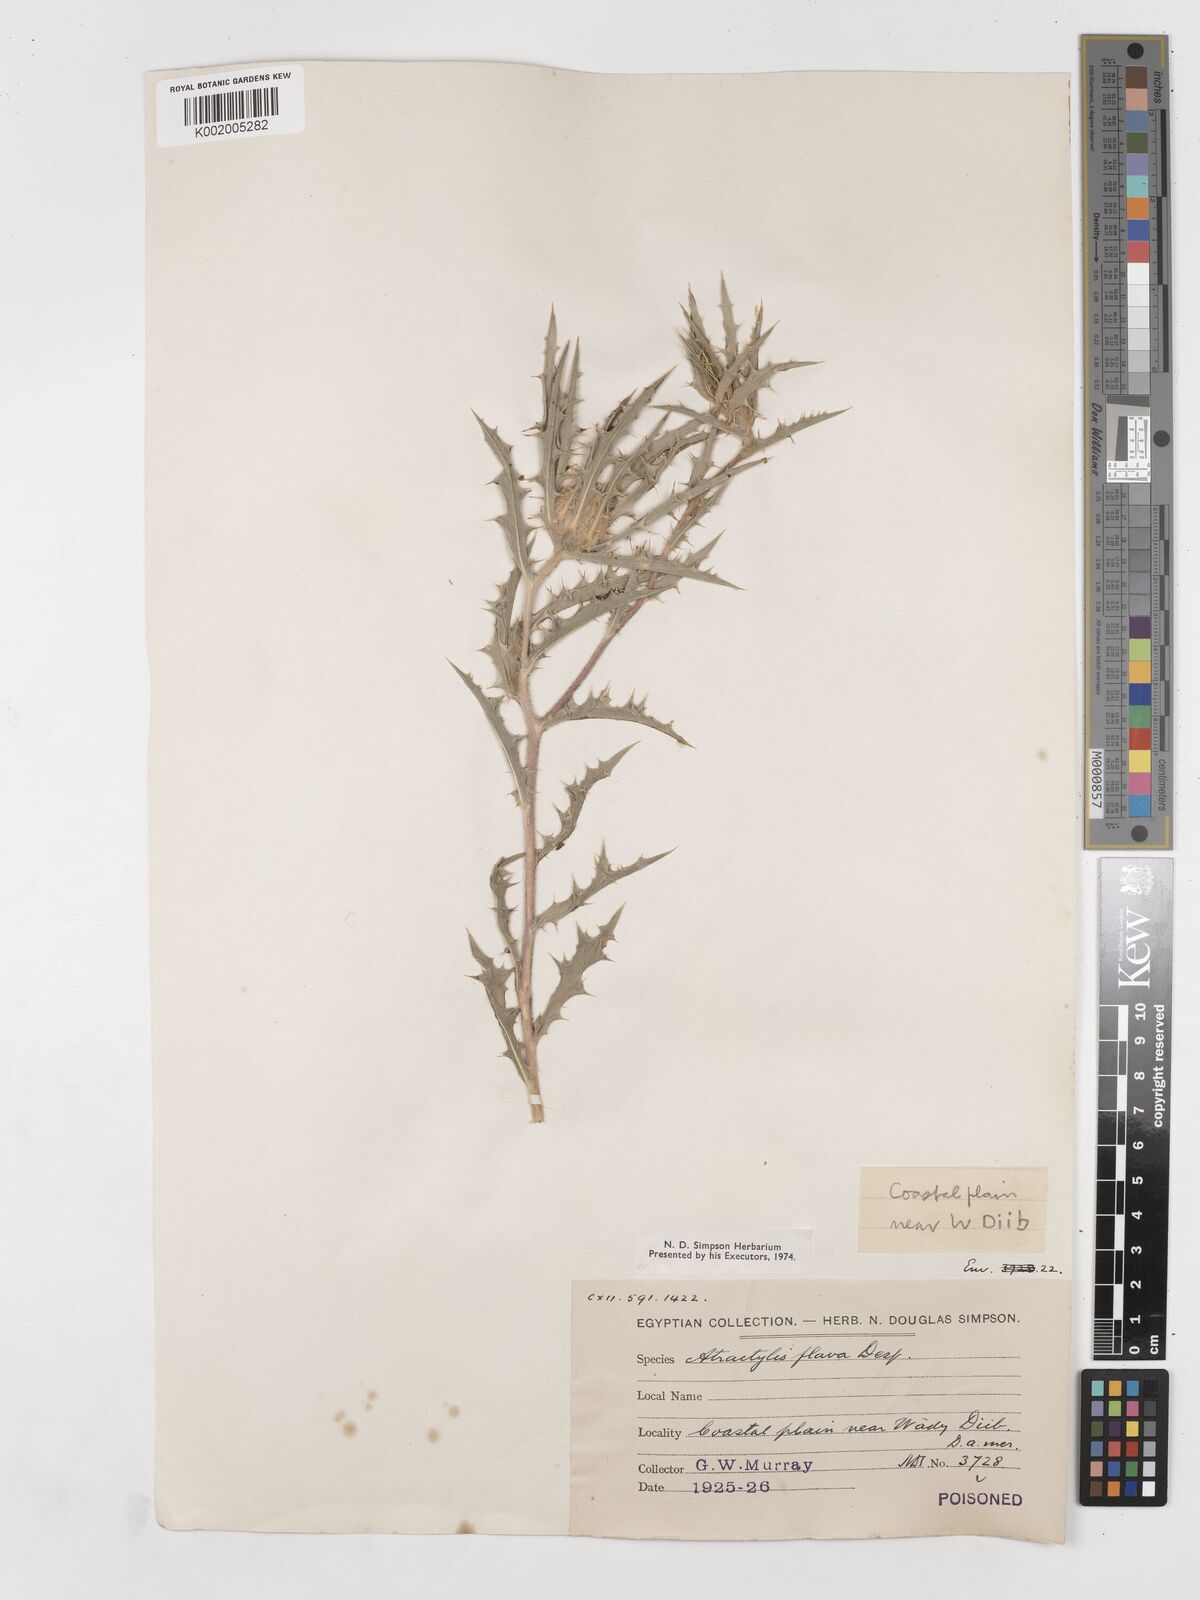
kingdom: Plantae
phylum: Tracheophyta
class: Magnoliopsida
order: Asterales
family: Asteraceae
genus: Atractylis
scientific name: Atractylis carduus
